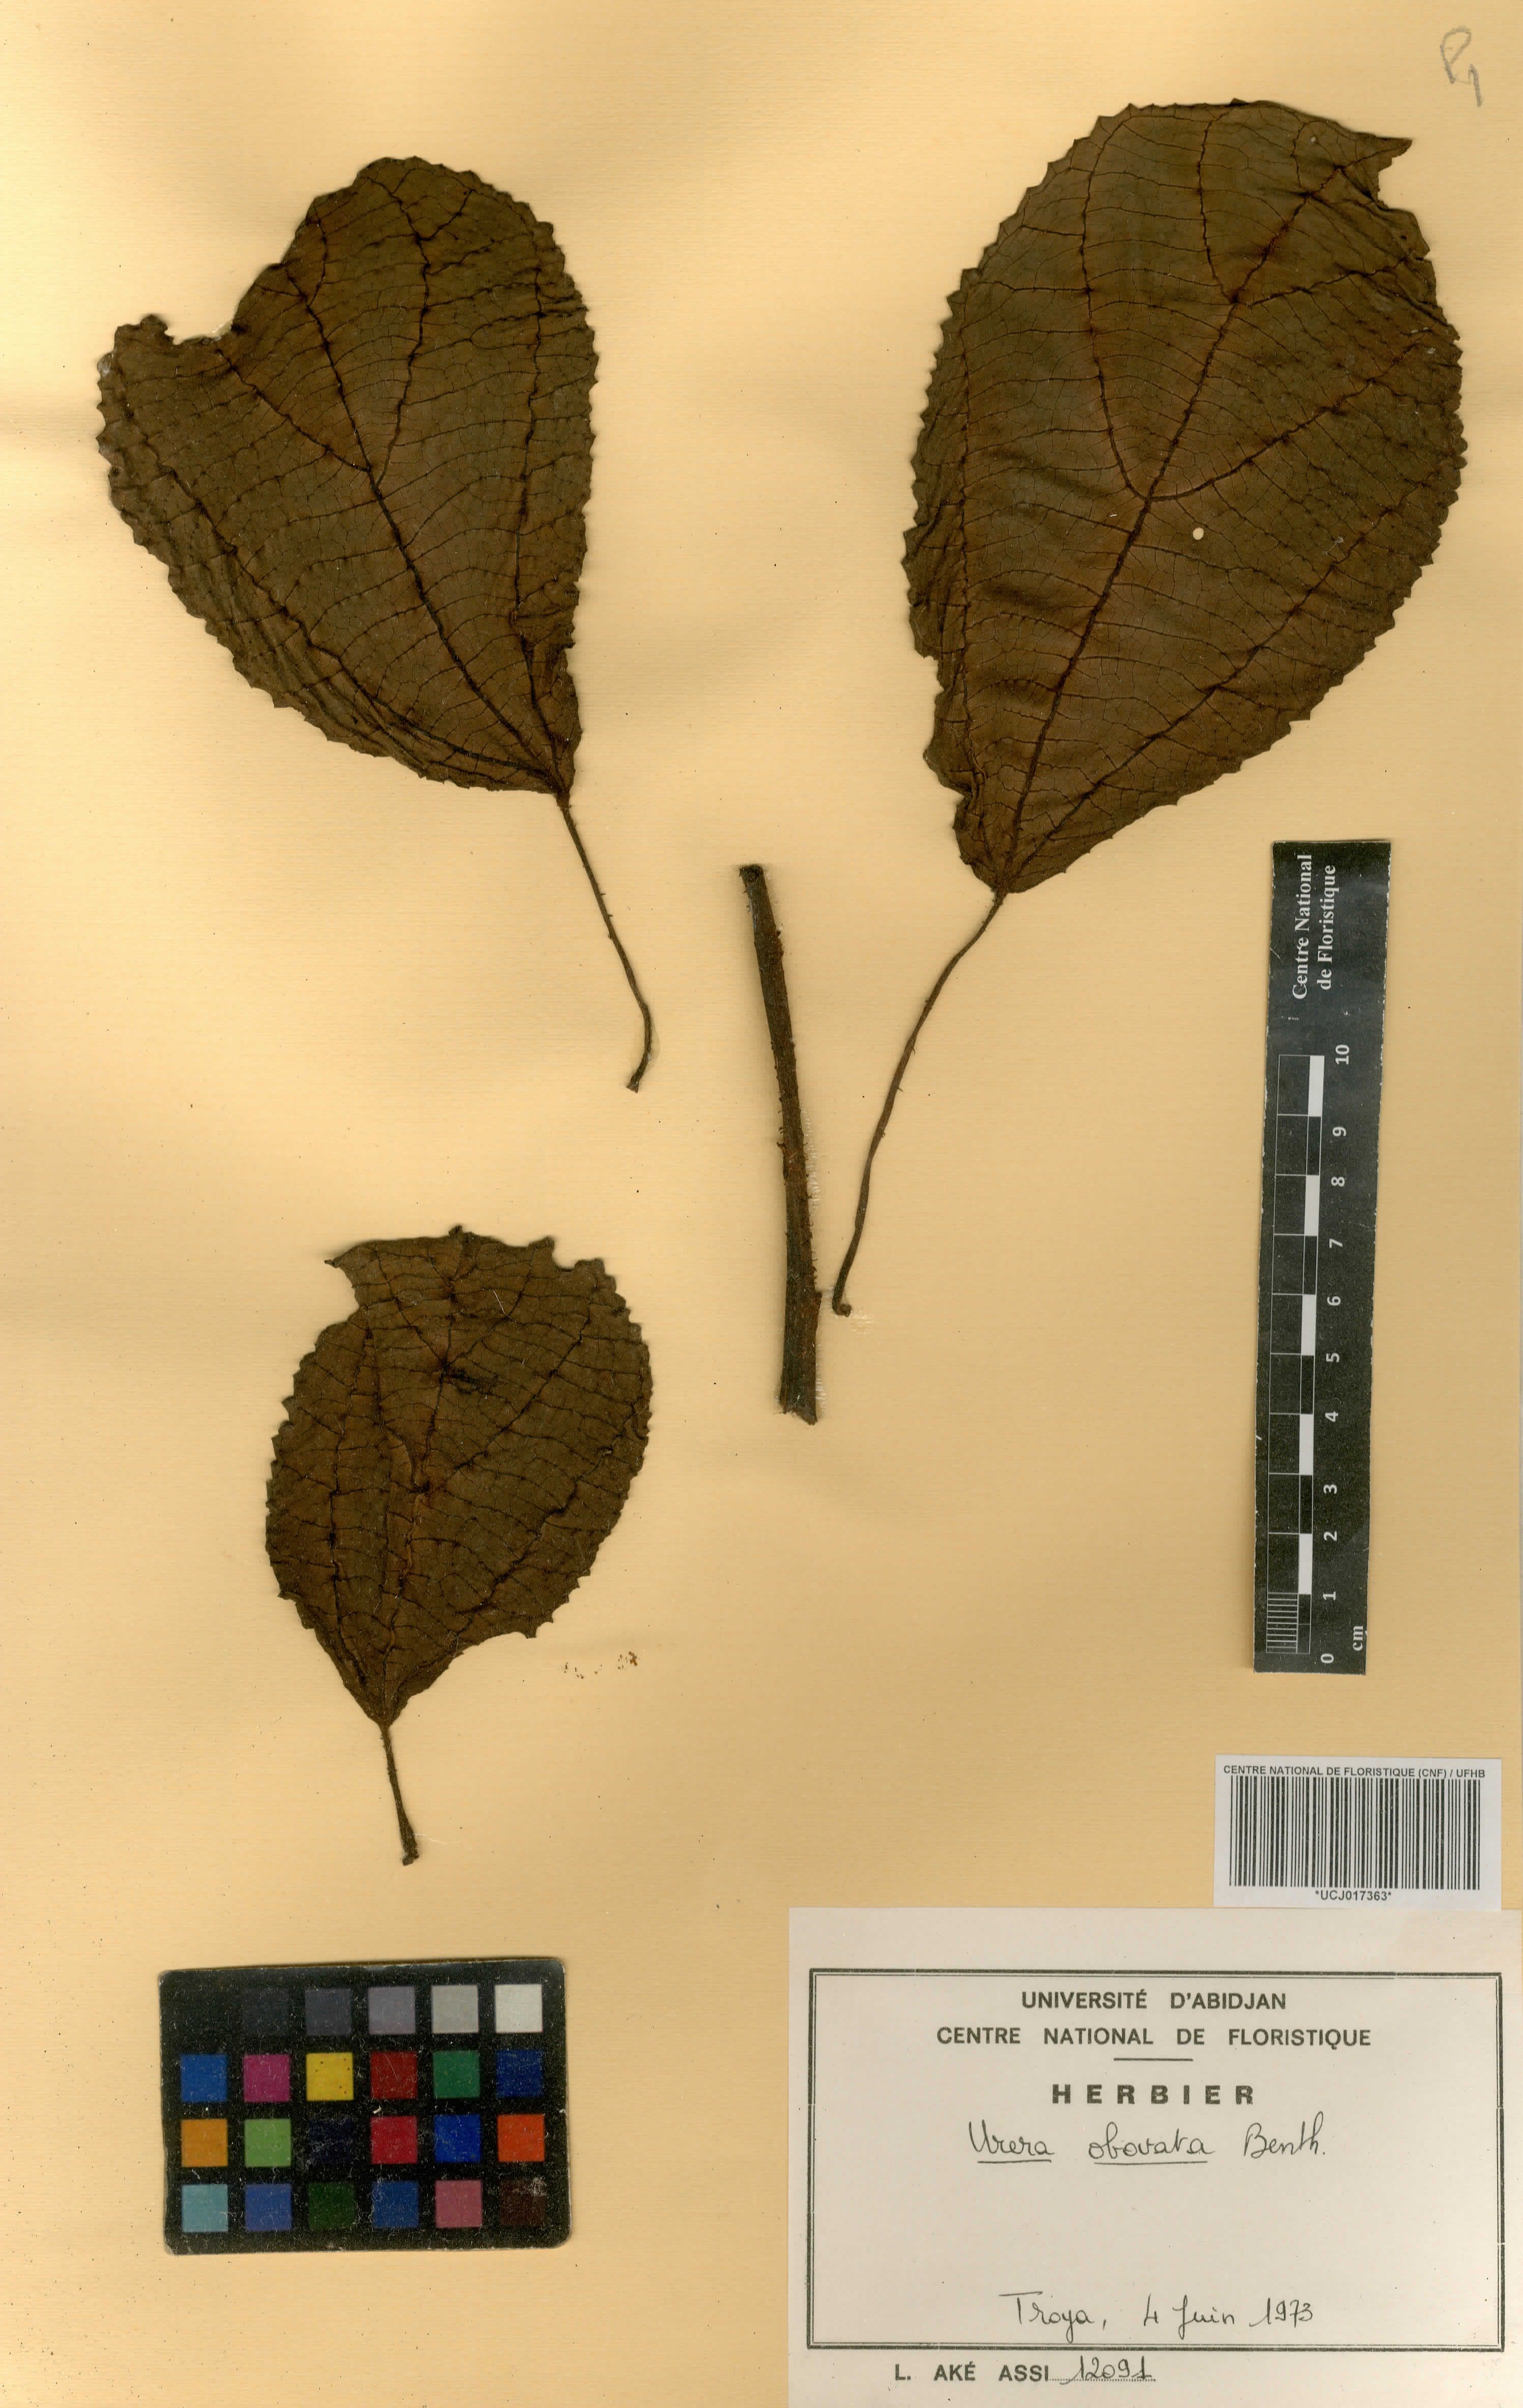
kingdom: Plantae
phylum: Tracheophyta
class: Magnoliopsida
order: Rosales
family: Urticaceae
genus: Scepocarpus
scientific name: Scepocarpus obovatus
